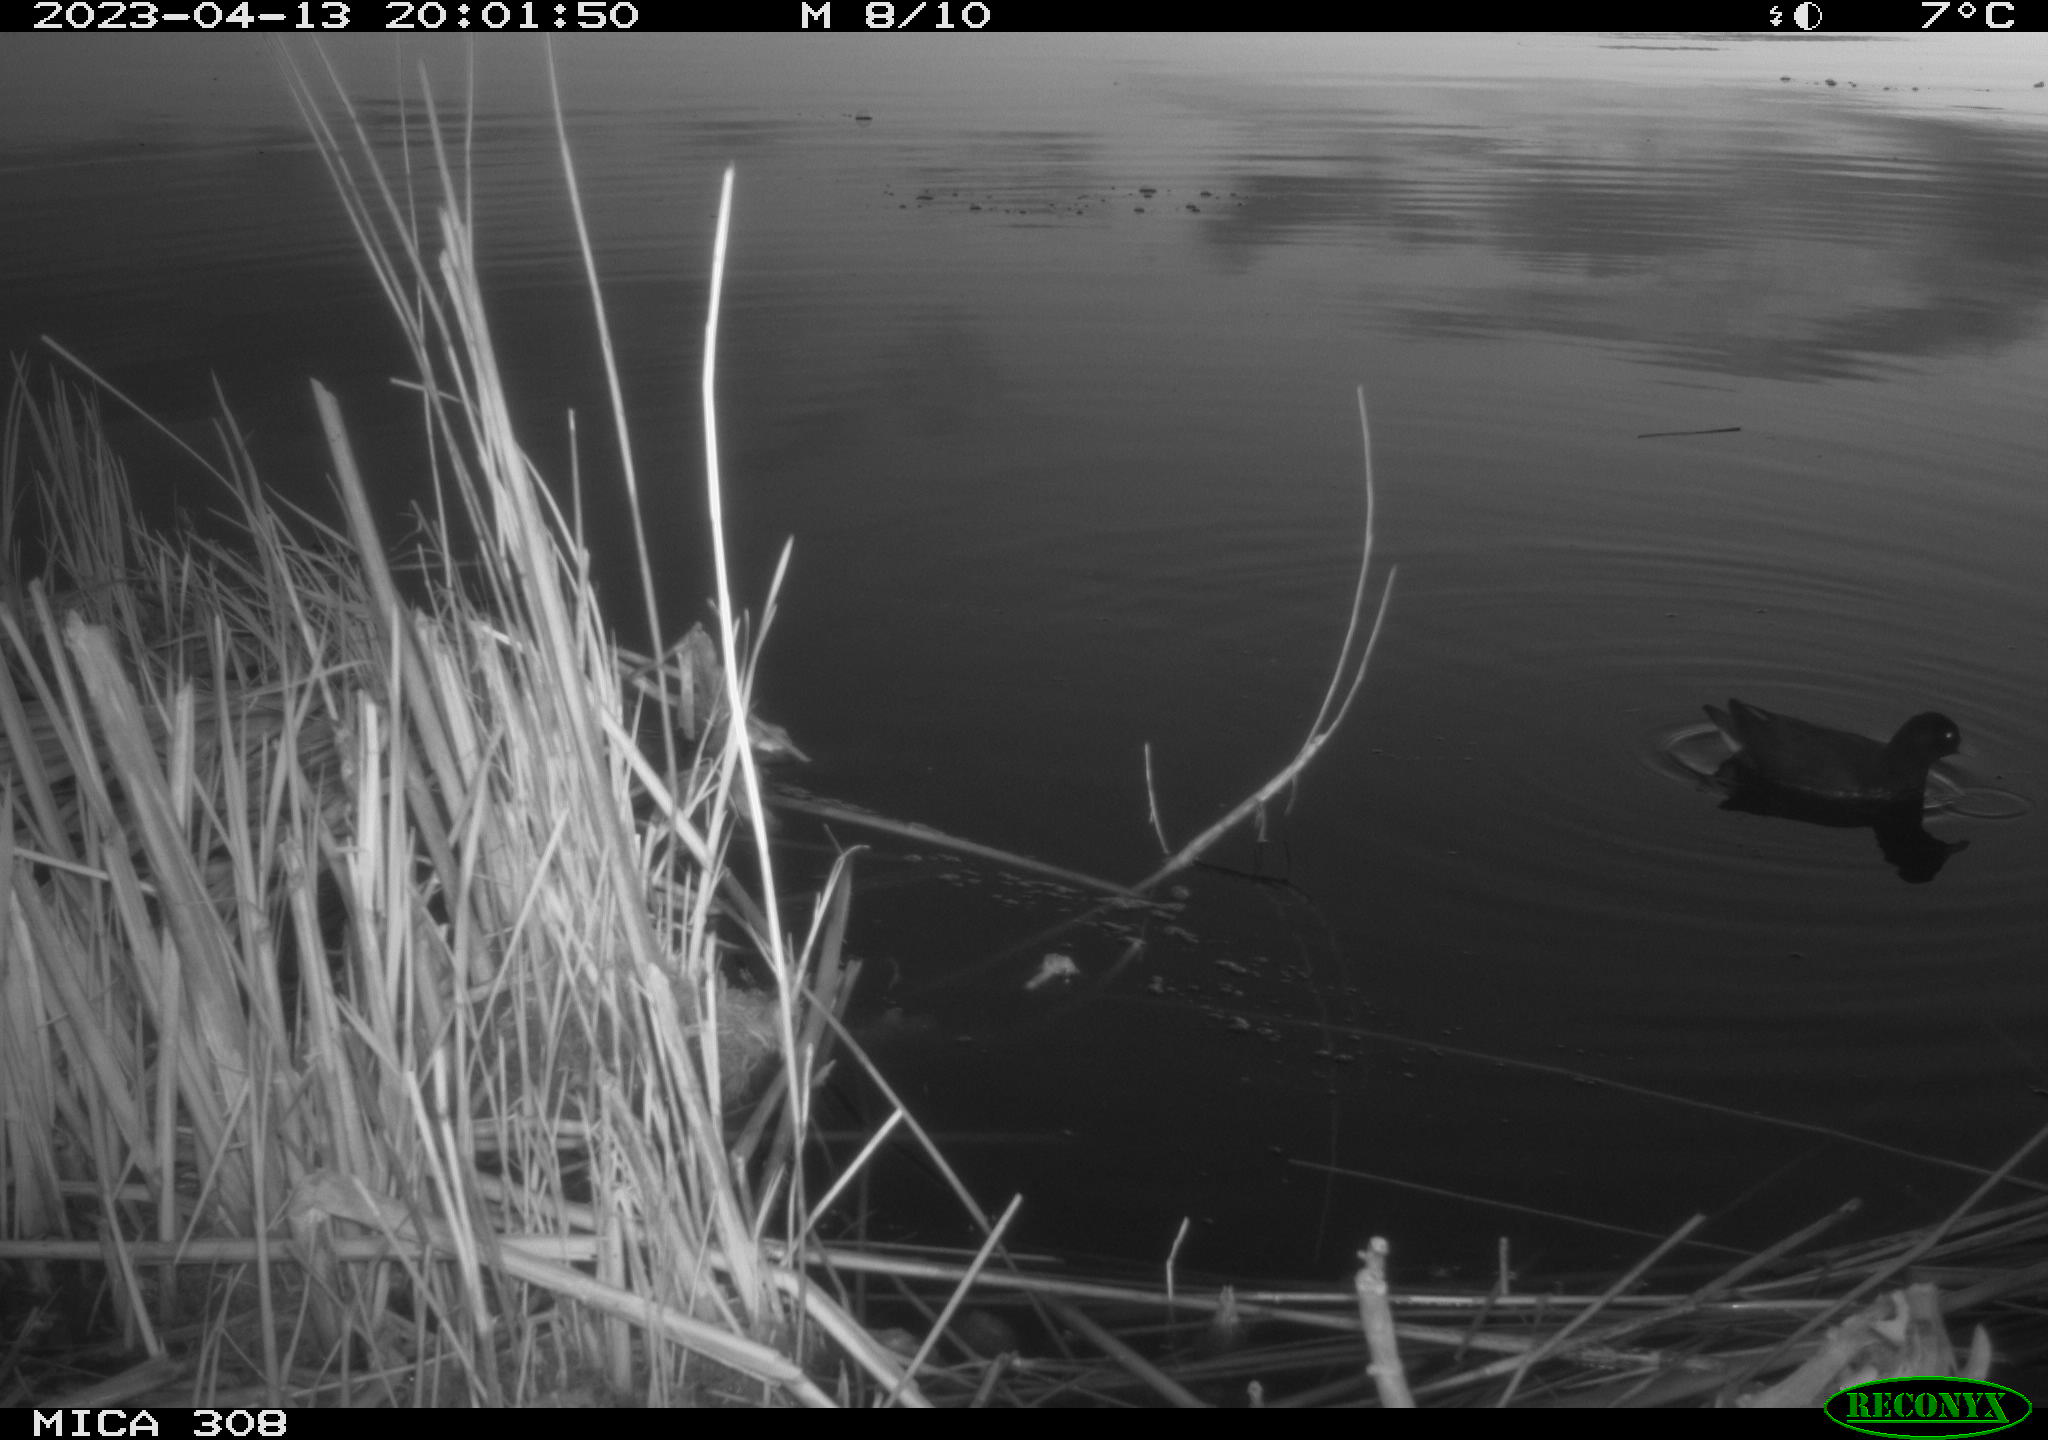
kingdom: Animalia
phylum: Chordata
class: Aves
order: Gruiformes
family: Rallidae
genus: Gallinula
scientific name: Gallinula chloropus
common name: Common moorhen
